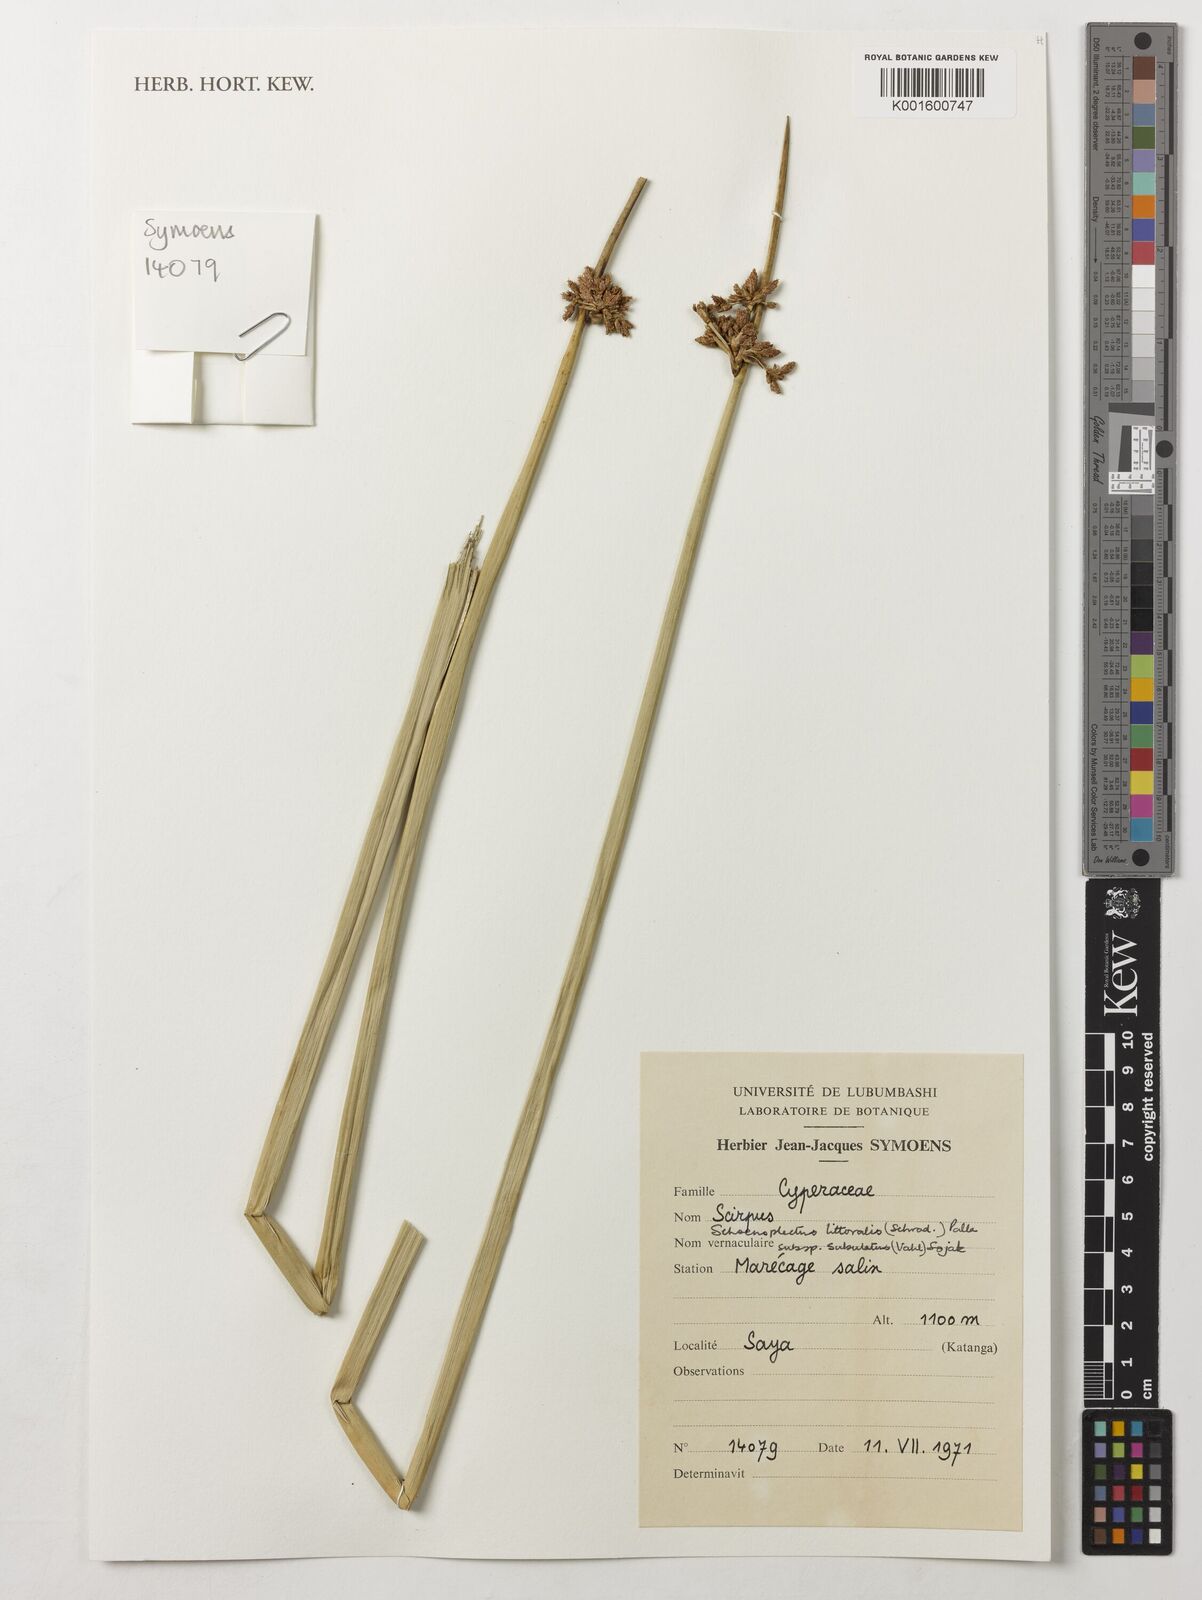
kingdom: Plantae
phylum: Tracheophyta
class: Liliopsida
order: Poales
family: Cyperaceae
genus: Schoenoplectus
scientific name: Schoenoplectus subulatus
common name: Coast club-rush
